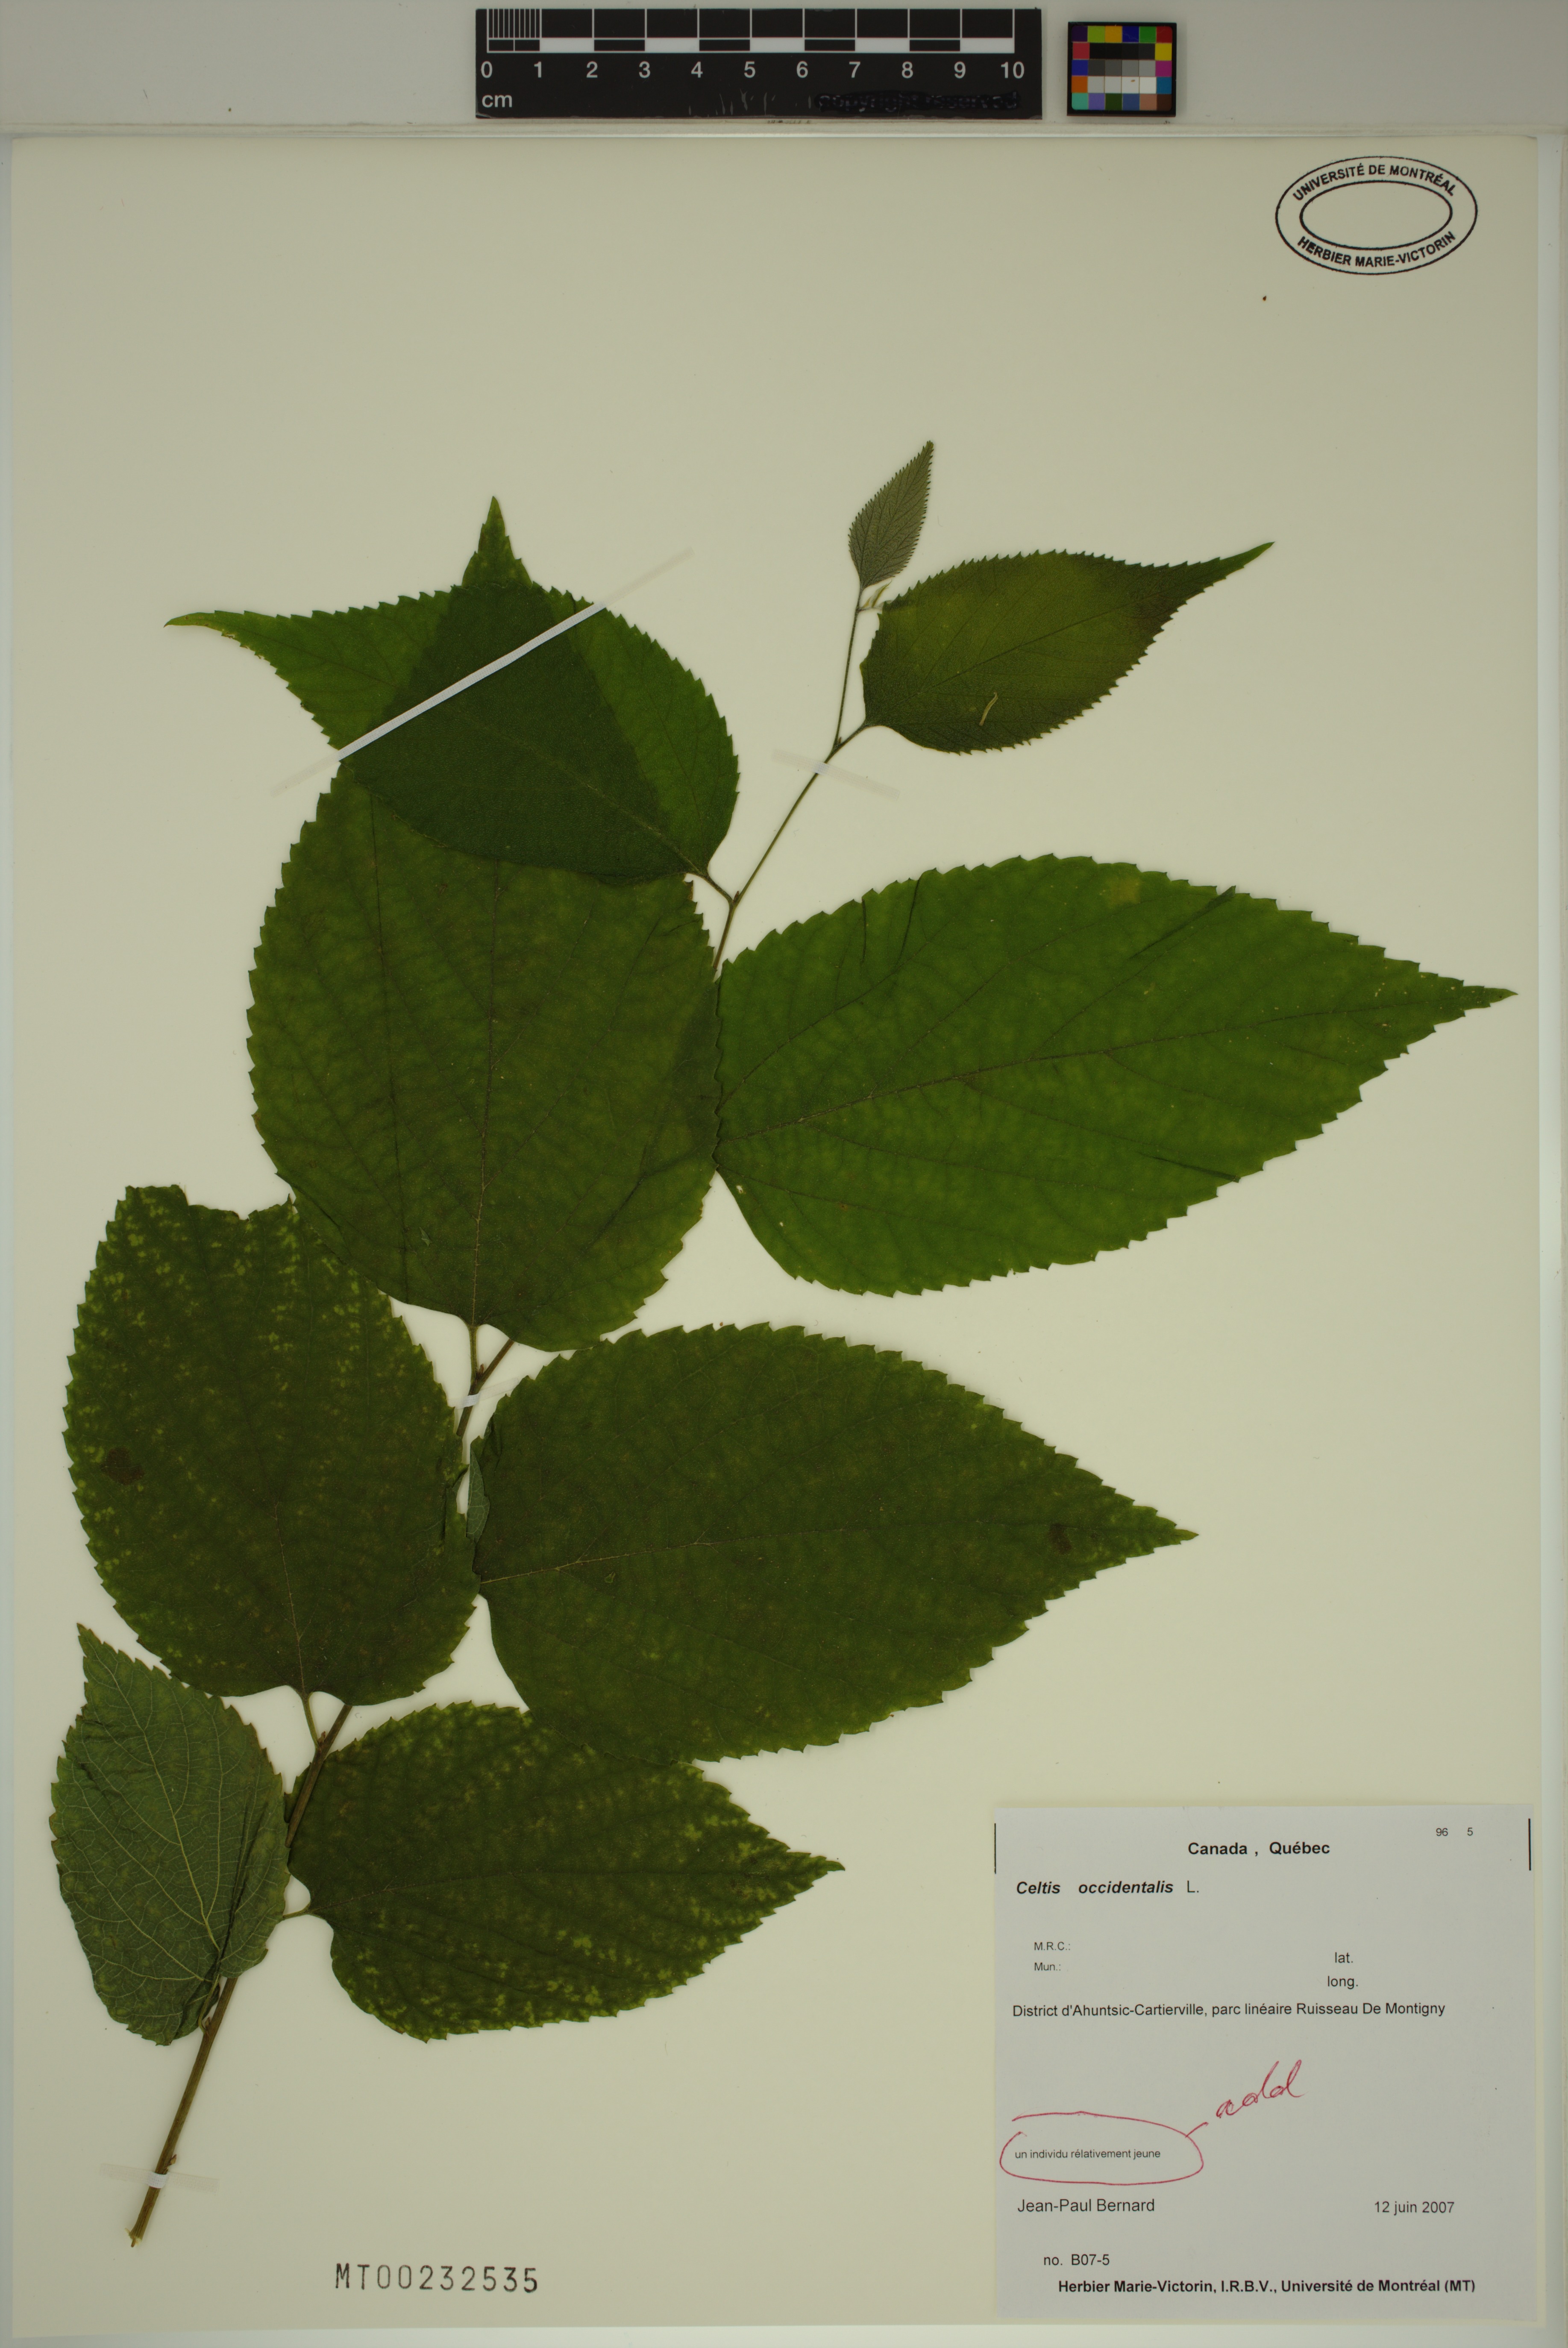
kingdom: Plantae
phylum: Tracheophyta
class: Magnoliopsida
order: Rosales
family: Cannabaceae
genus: Celtis
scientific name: Celtis occidentalis
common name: Common hackberry
